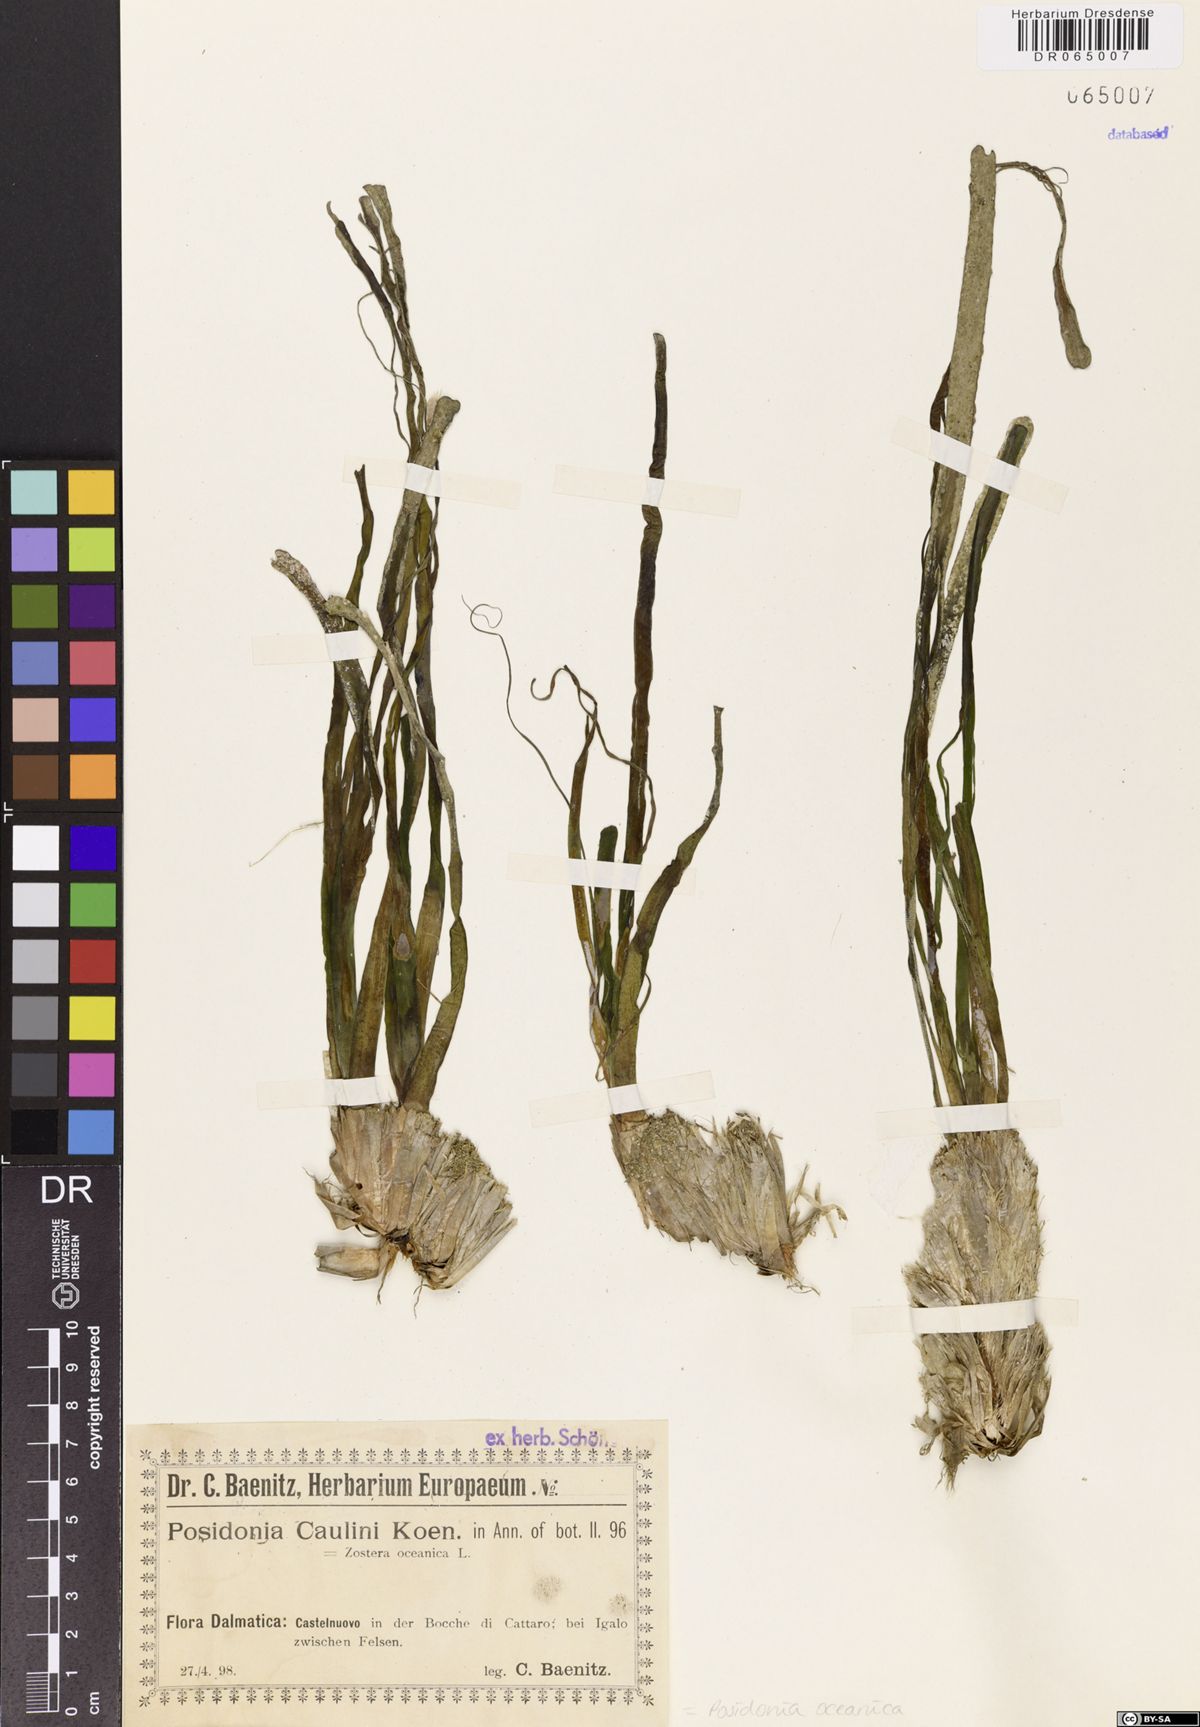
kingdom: Plantae
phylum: Tracheophyta
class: Liliopsida
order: Alismatales
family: Posidoniaceae
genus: Posidonia
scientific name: Posidonia oceanica
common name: Mediterranean tapeweed
